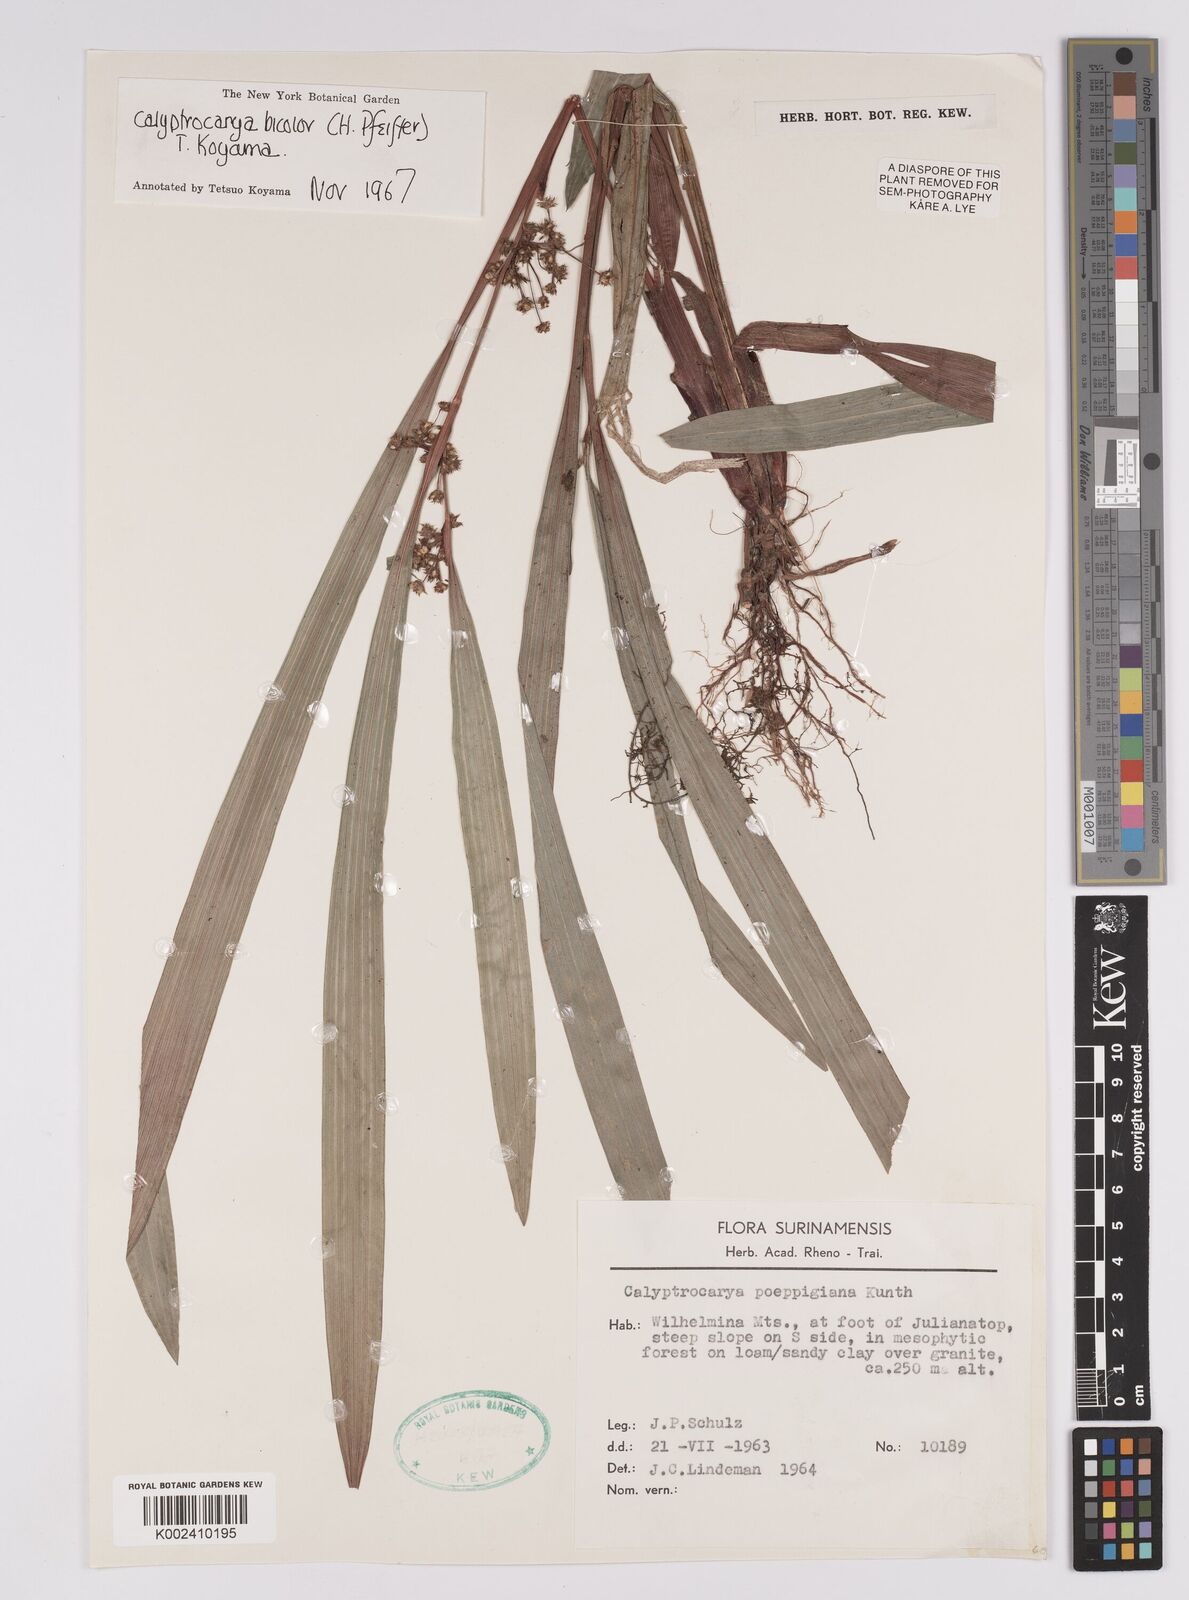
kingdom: Plantae
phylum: Tracheophyta
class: Liliopsida
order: Poales
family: Cyperaceae
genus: Calyptrocarya
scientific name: Calyptrocarya bicolor
